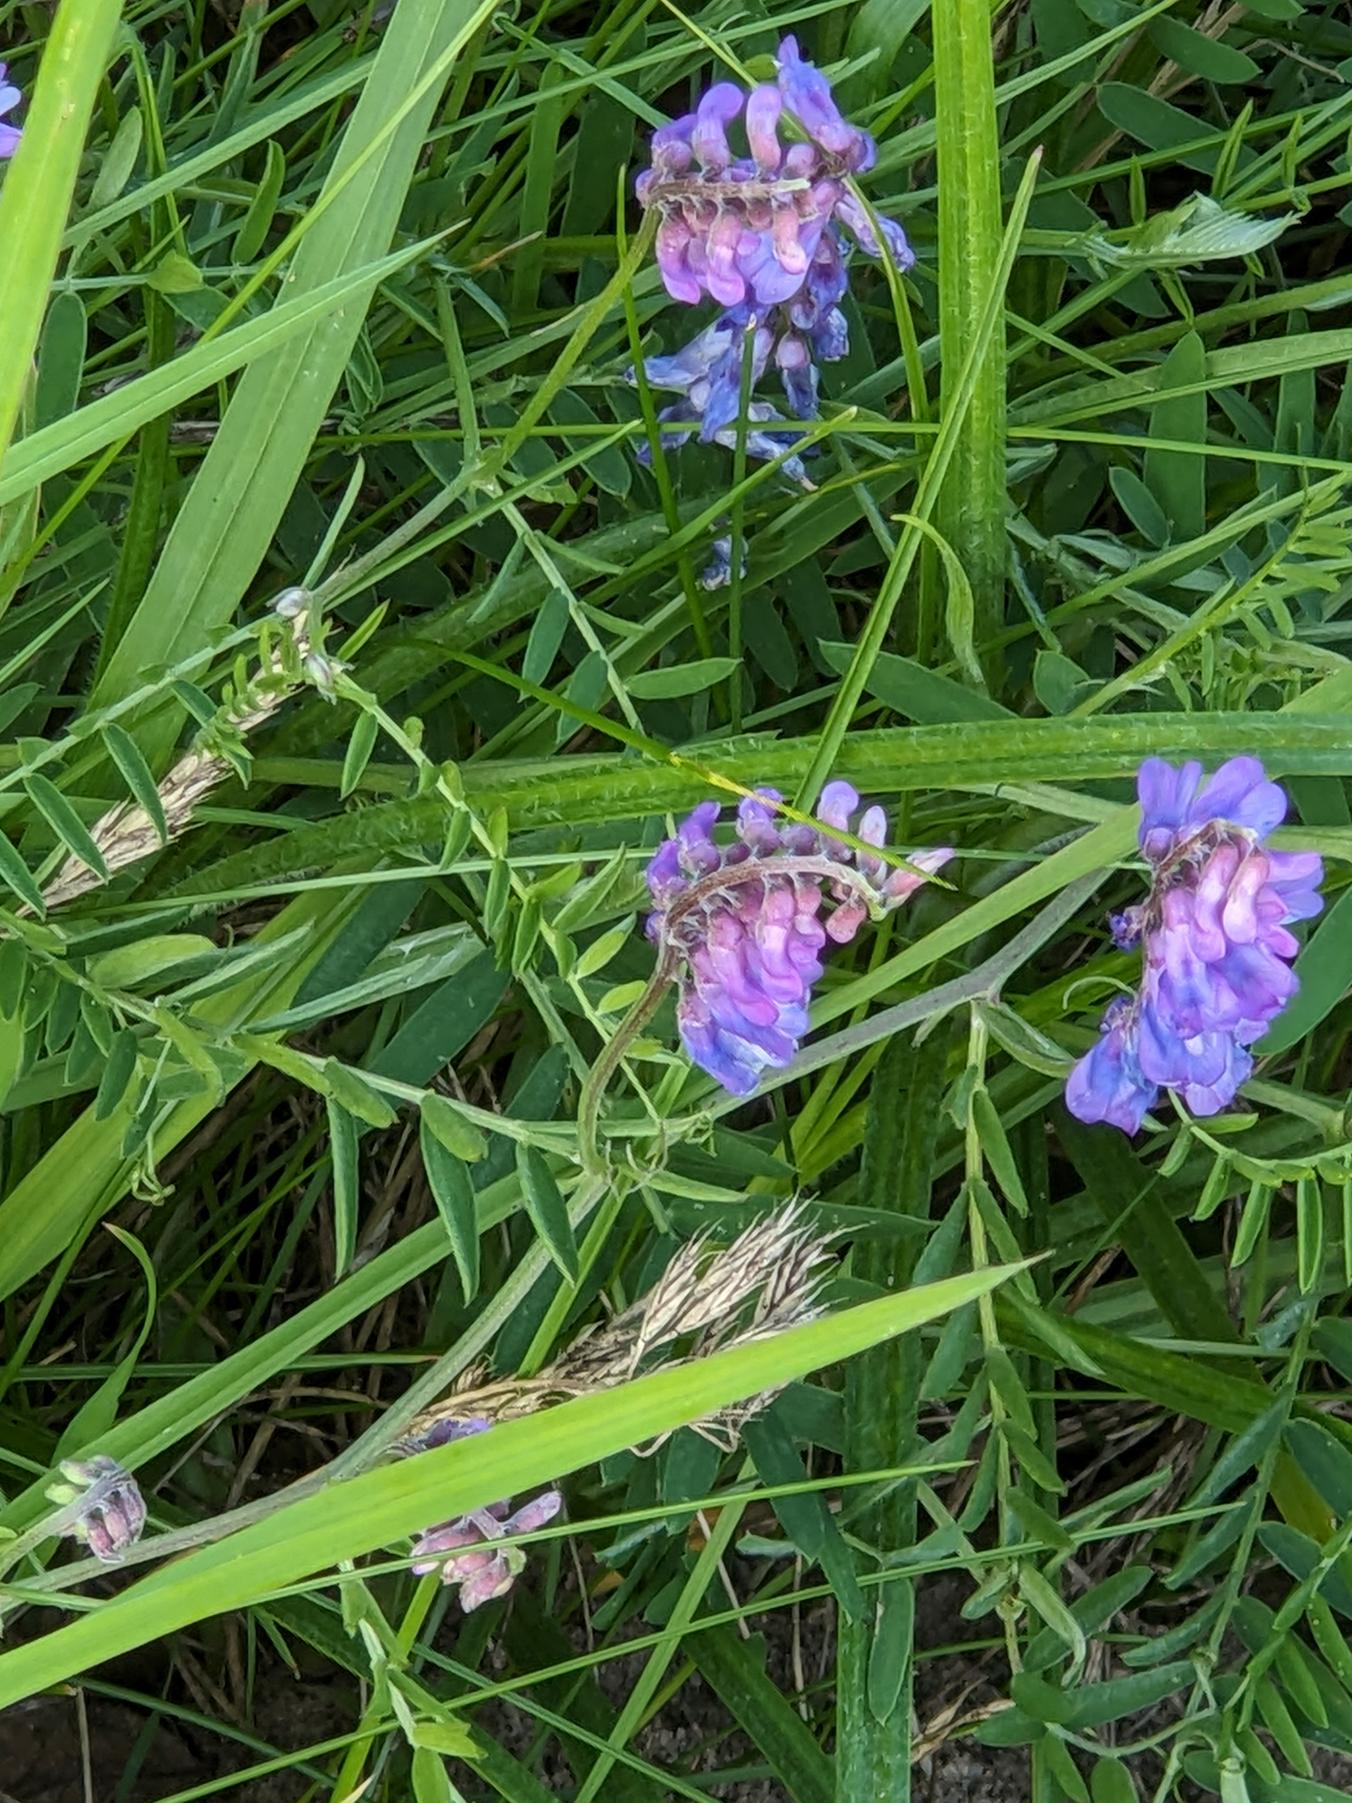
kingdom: Plantae
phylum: Tracheophyta
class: Magnoliopsida
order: Fabales
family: Fabaceae
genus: Vicia
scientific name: Vicia cracca
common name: Muse-vikke
